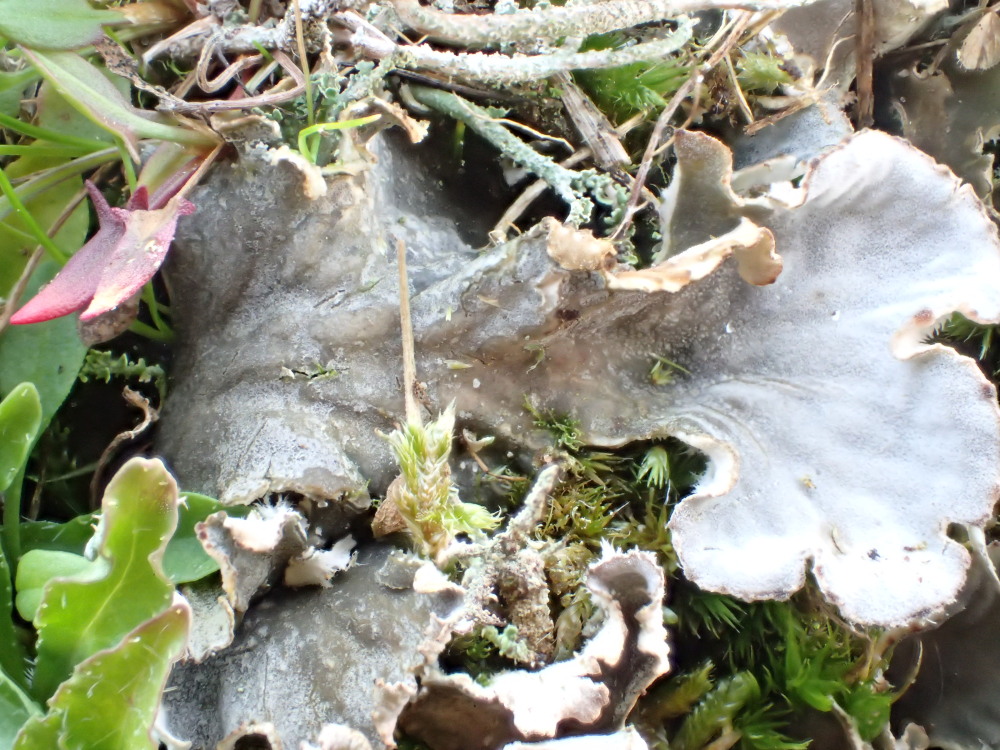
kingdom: Fungi
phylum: Ascomycota
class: Lecanoromycetes
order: Peltigerales
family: Peltigeraceae
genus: Peltigera
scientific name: Peltigera membranacea
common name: tynd skjoldlav
